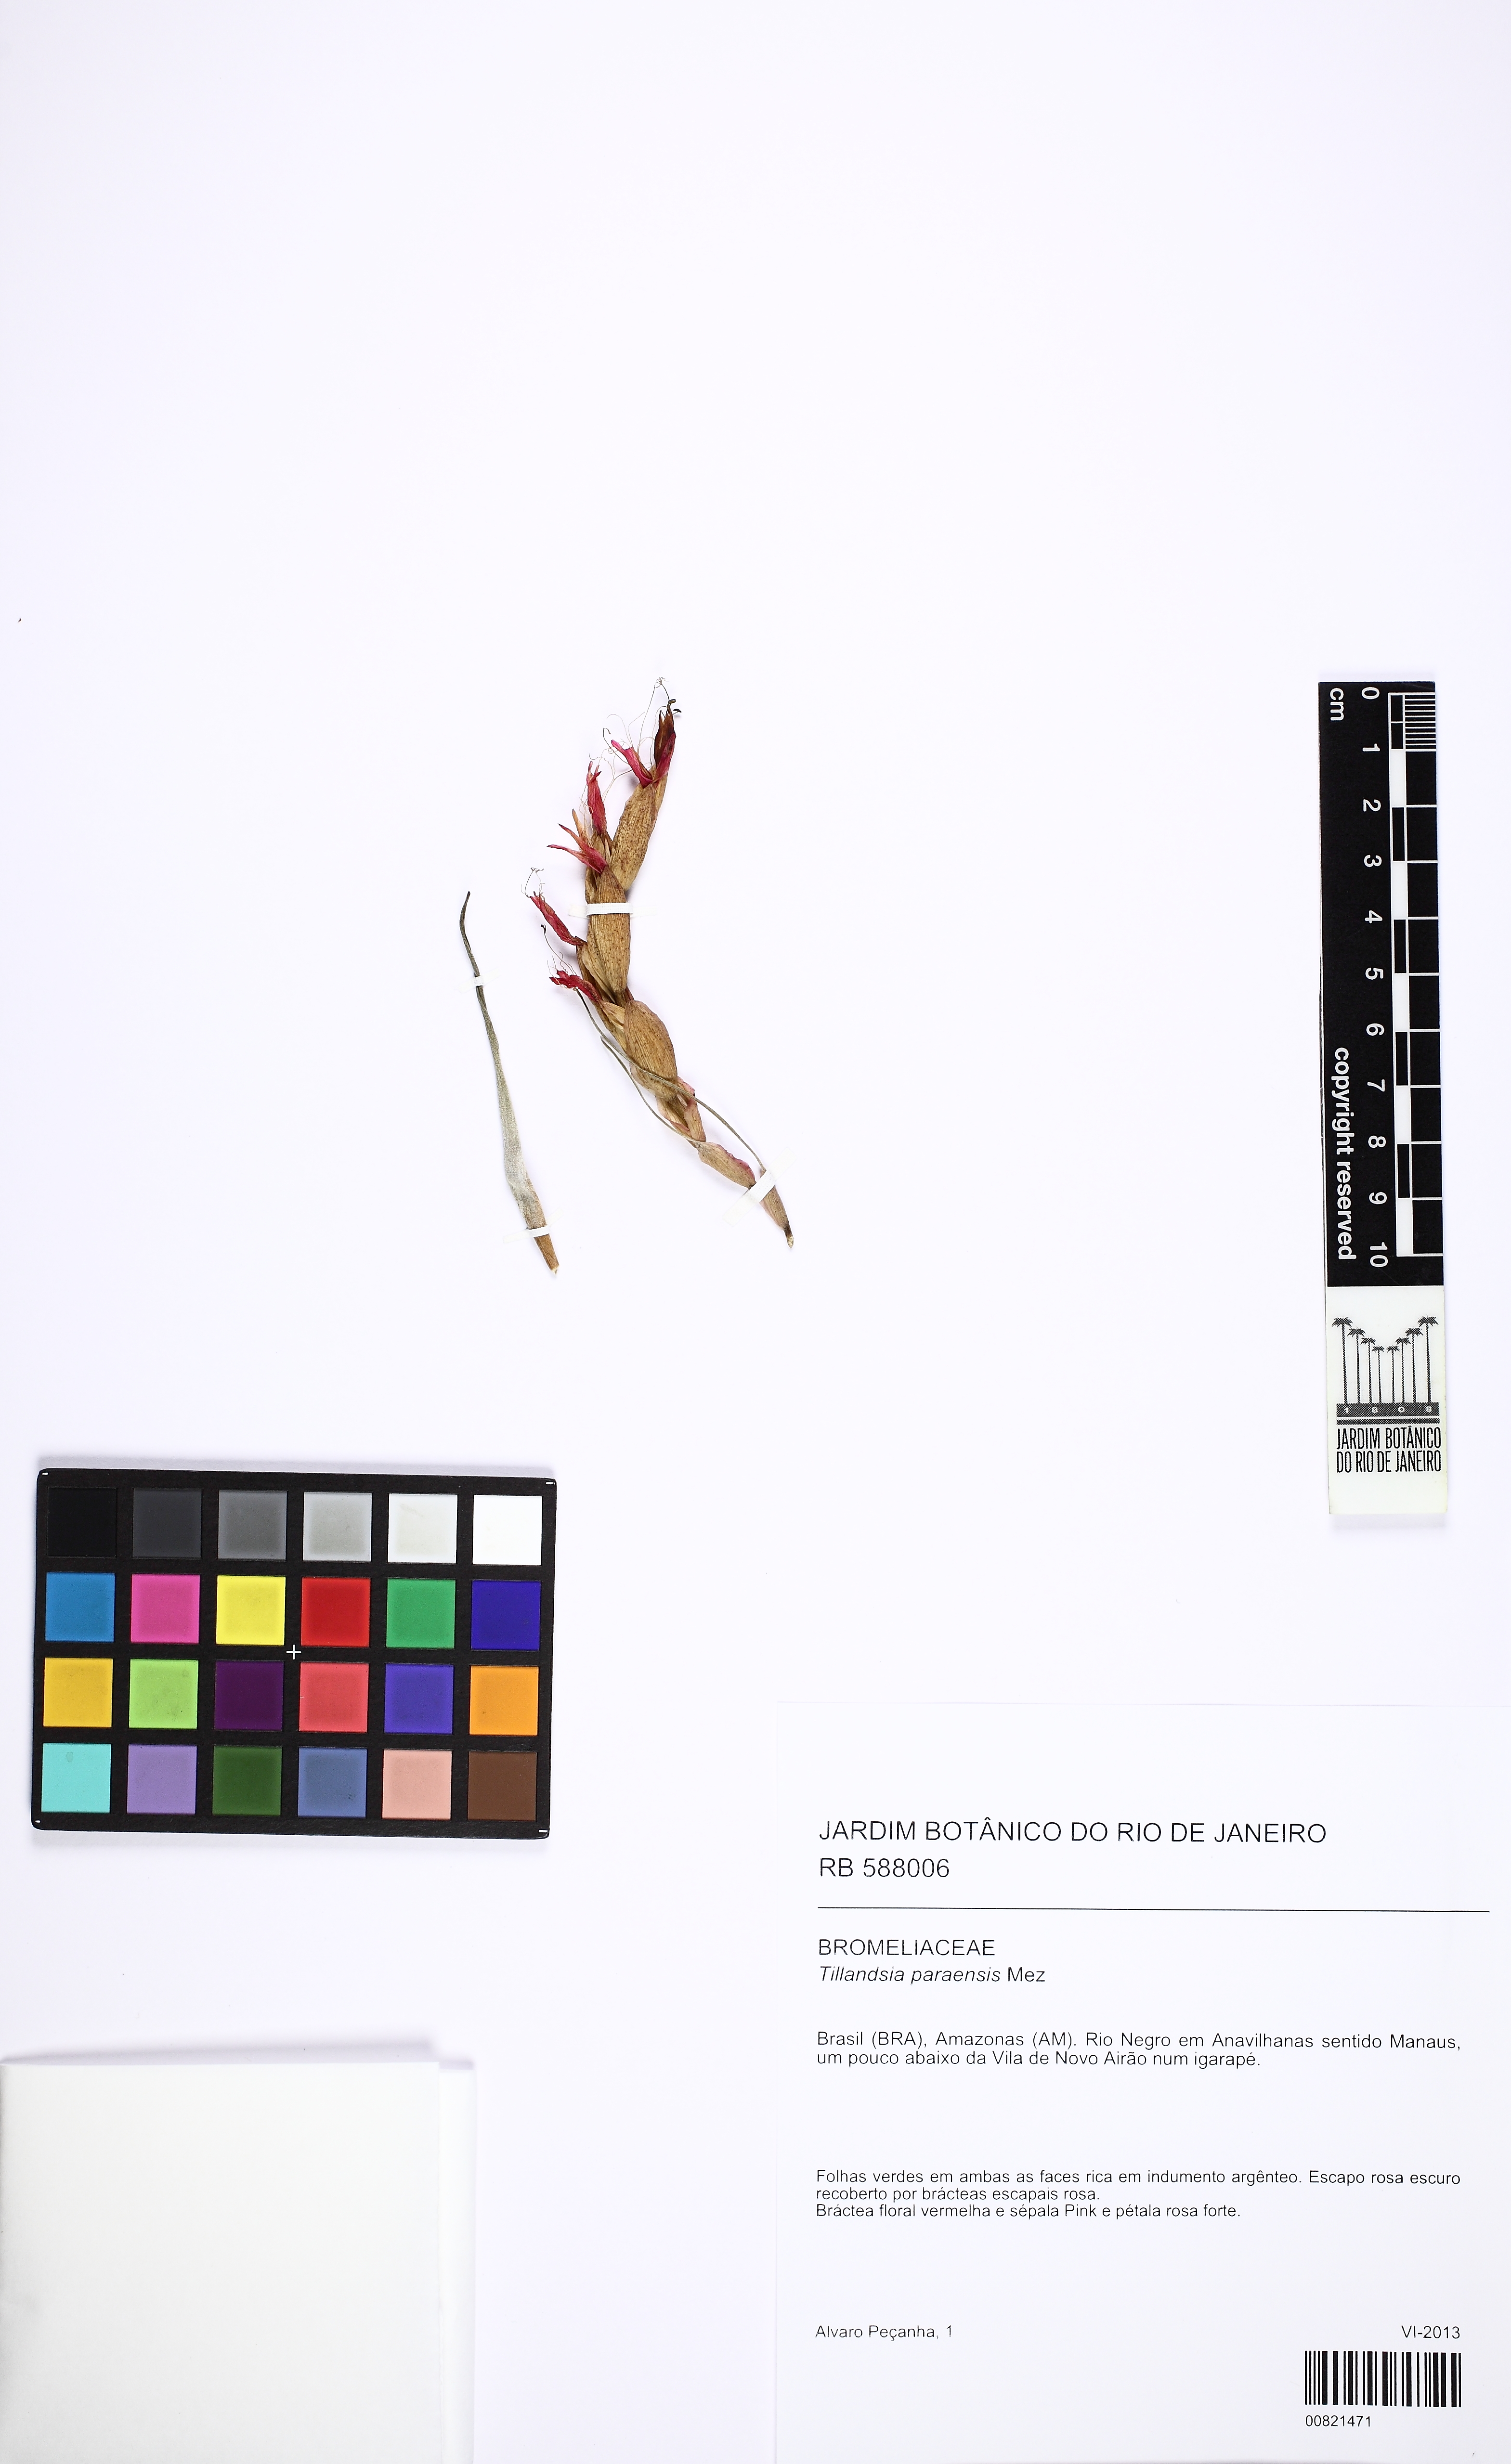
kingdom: Plantae
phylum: Tracheophyta
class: Liliopsida
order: Poales
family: Bromeliaceae
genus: Tillandsia
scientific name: Tillandsia paraensis
